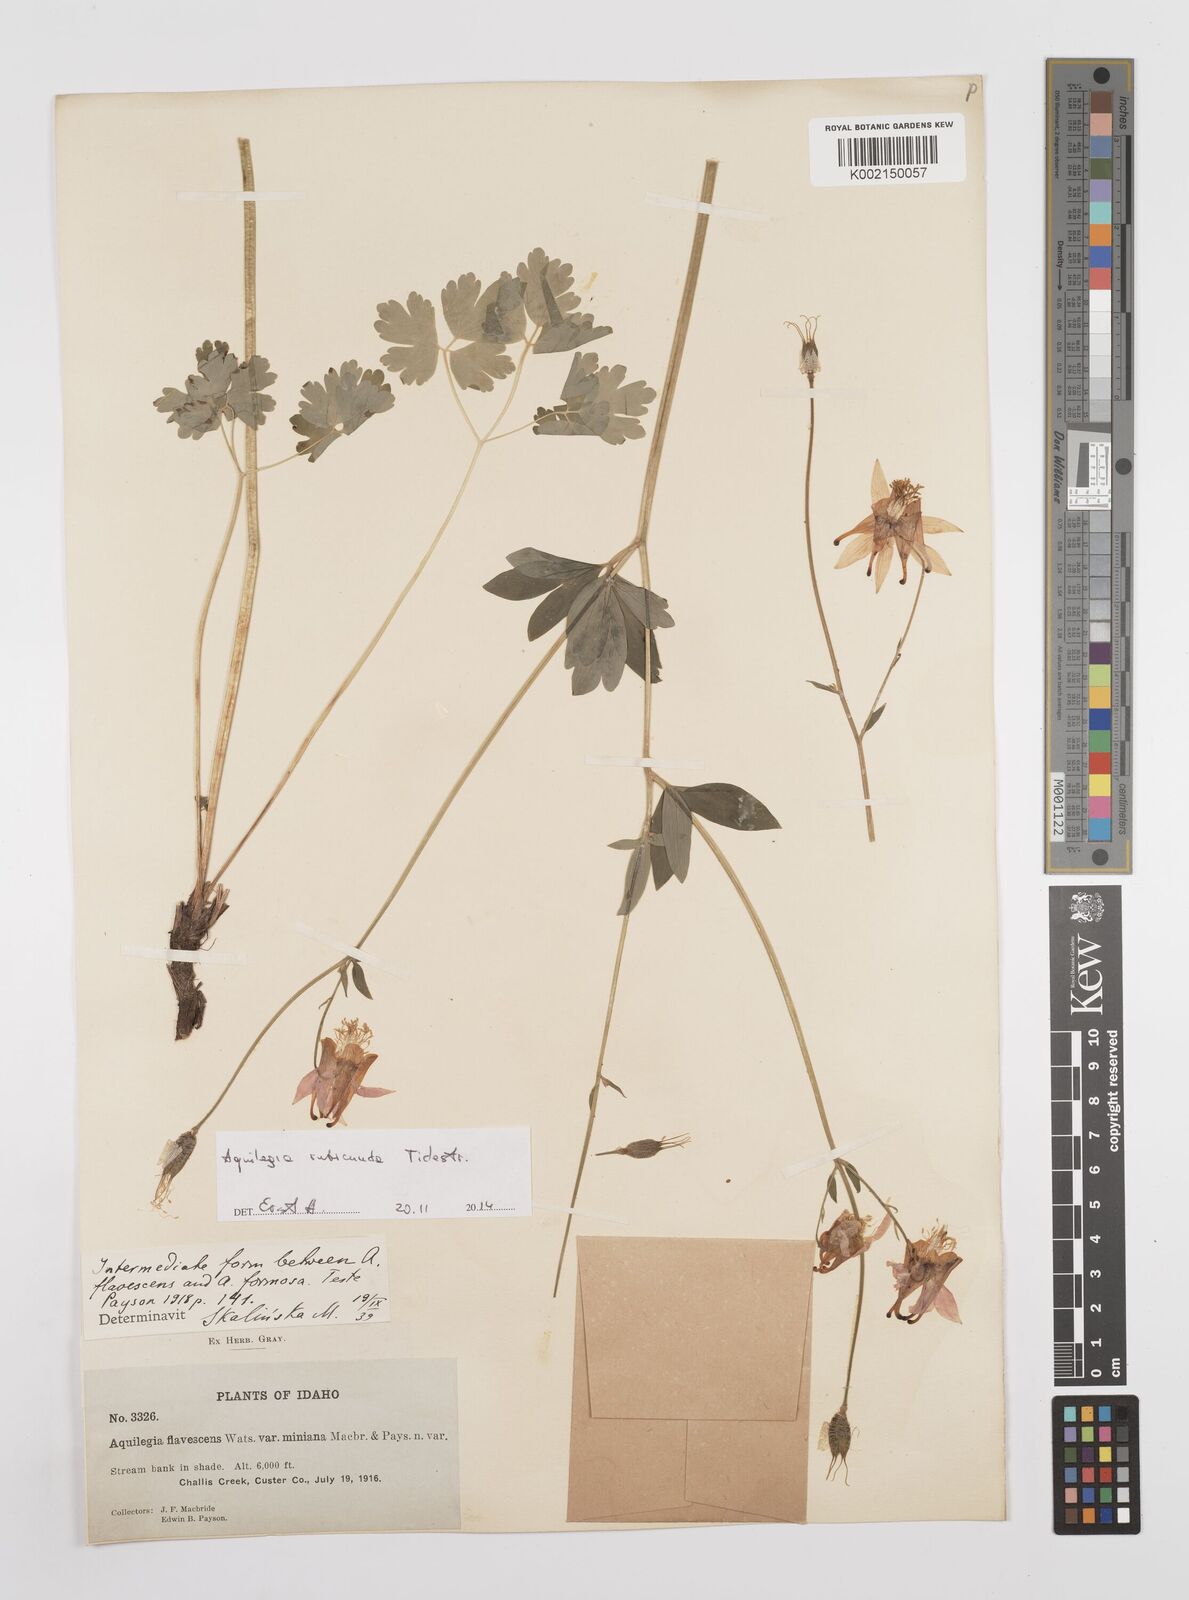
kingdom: Plantae
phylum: Tracheophyta
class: Magnoliopsida
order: Ranunculales
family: Ranunculaceae
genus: Aquilegia
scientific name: Aquilegia flavescens
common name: Yellow columbine
